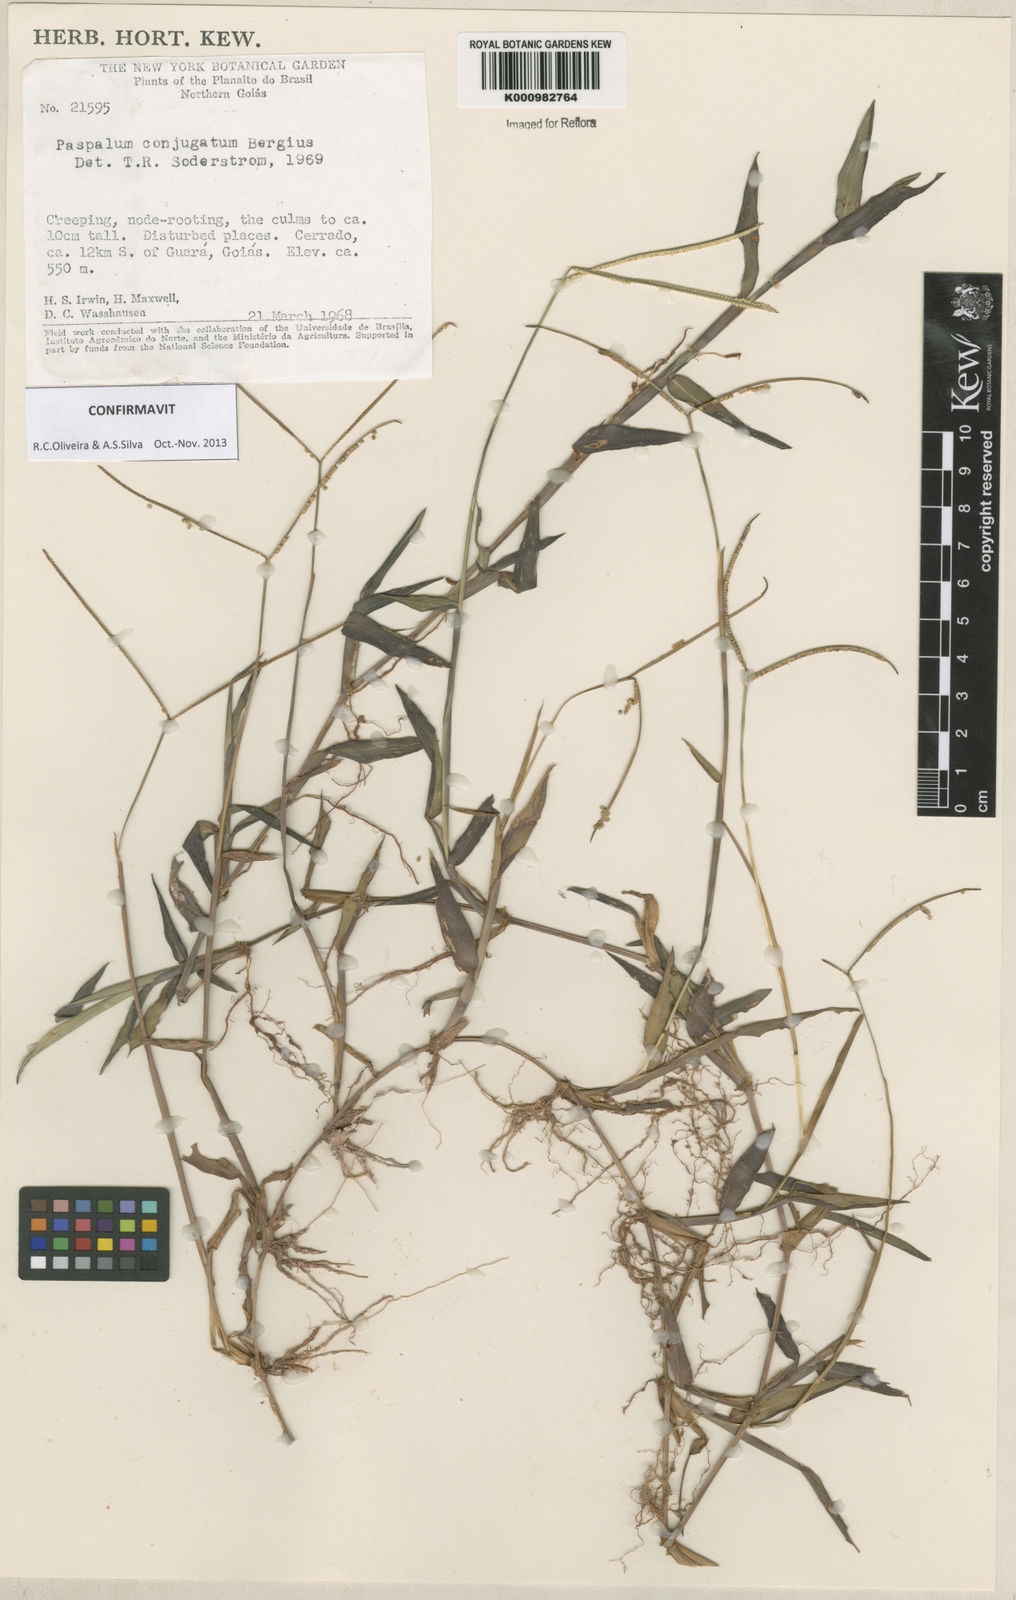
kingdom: Plantae
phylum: Tracheophyta
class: Liliopsida
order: Poales
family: Poaceae
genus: Paspalum
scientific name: Paspalum conjugatum
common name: Hilograss
